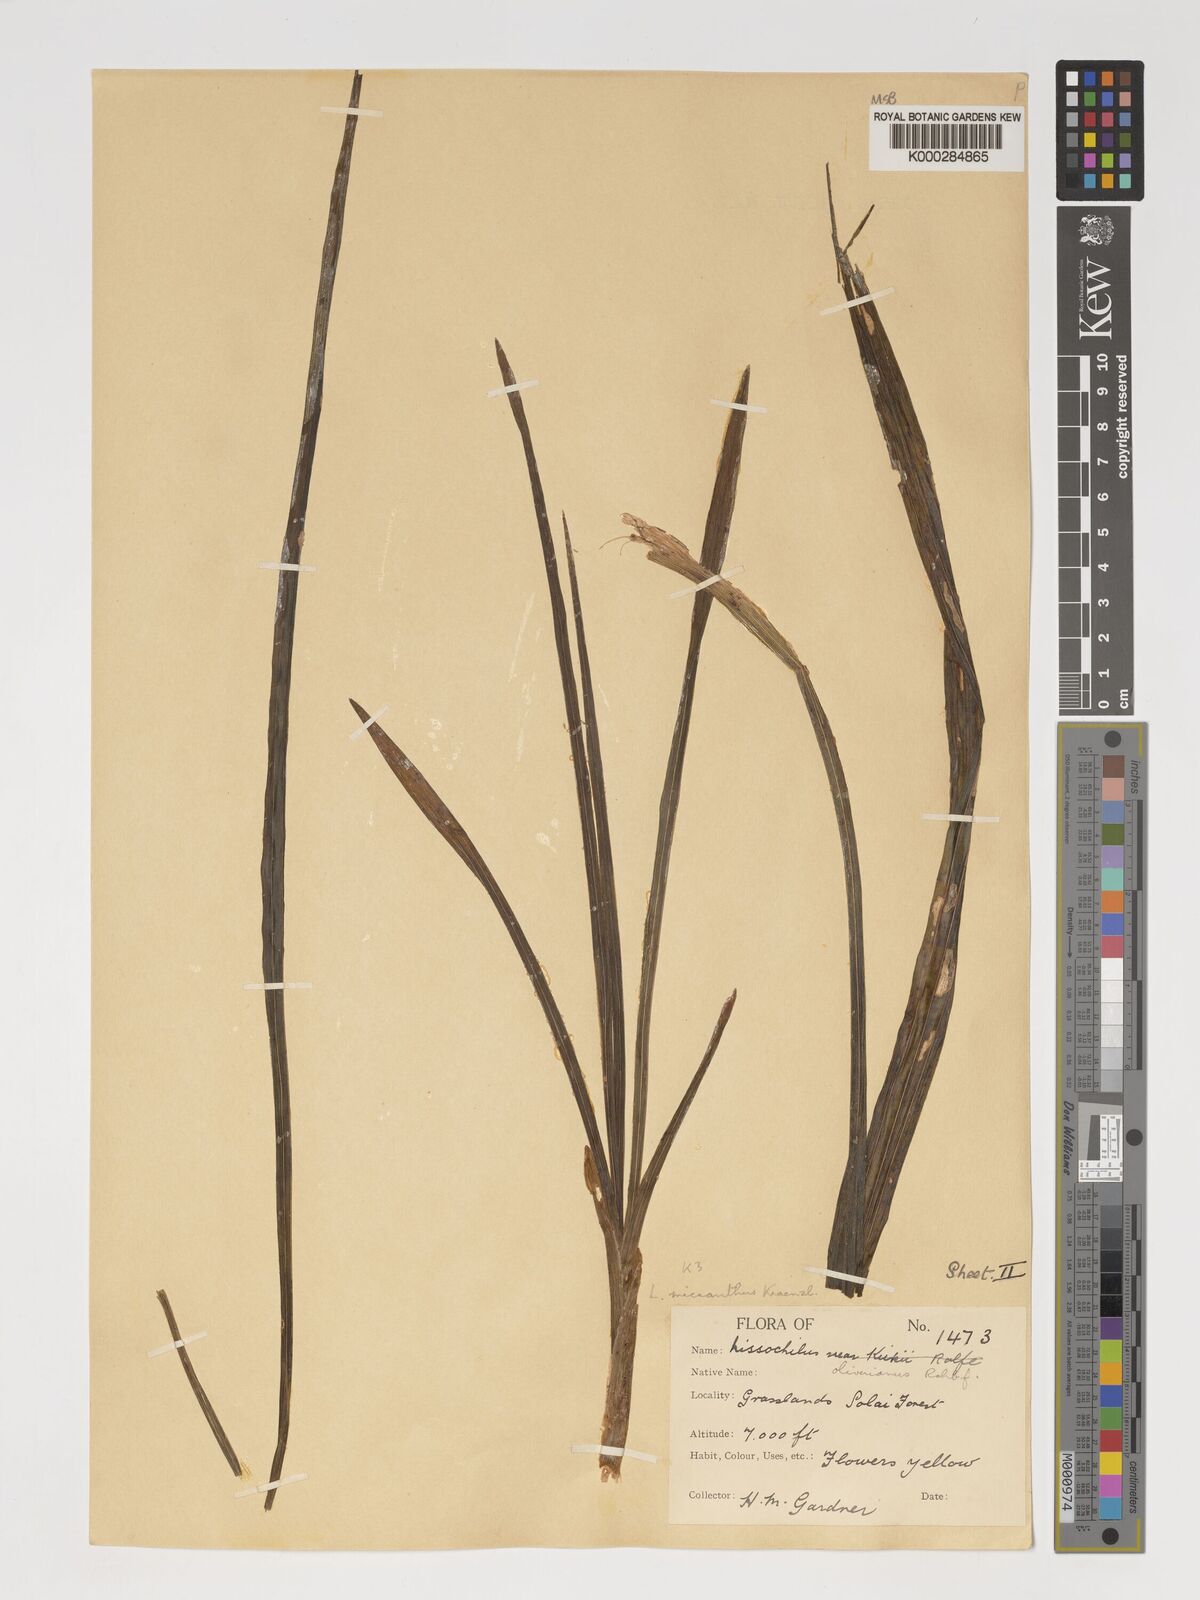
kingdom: Plantae
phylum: Tracheophyta
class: Liliopsida
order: Asparagales
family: Orchidaceae
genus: Eulophia
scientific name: Eulophia streptopetala
